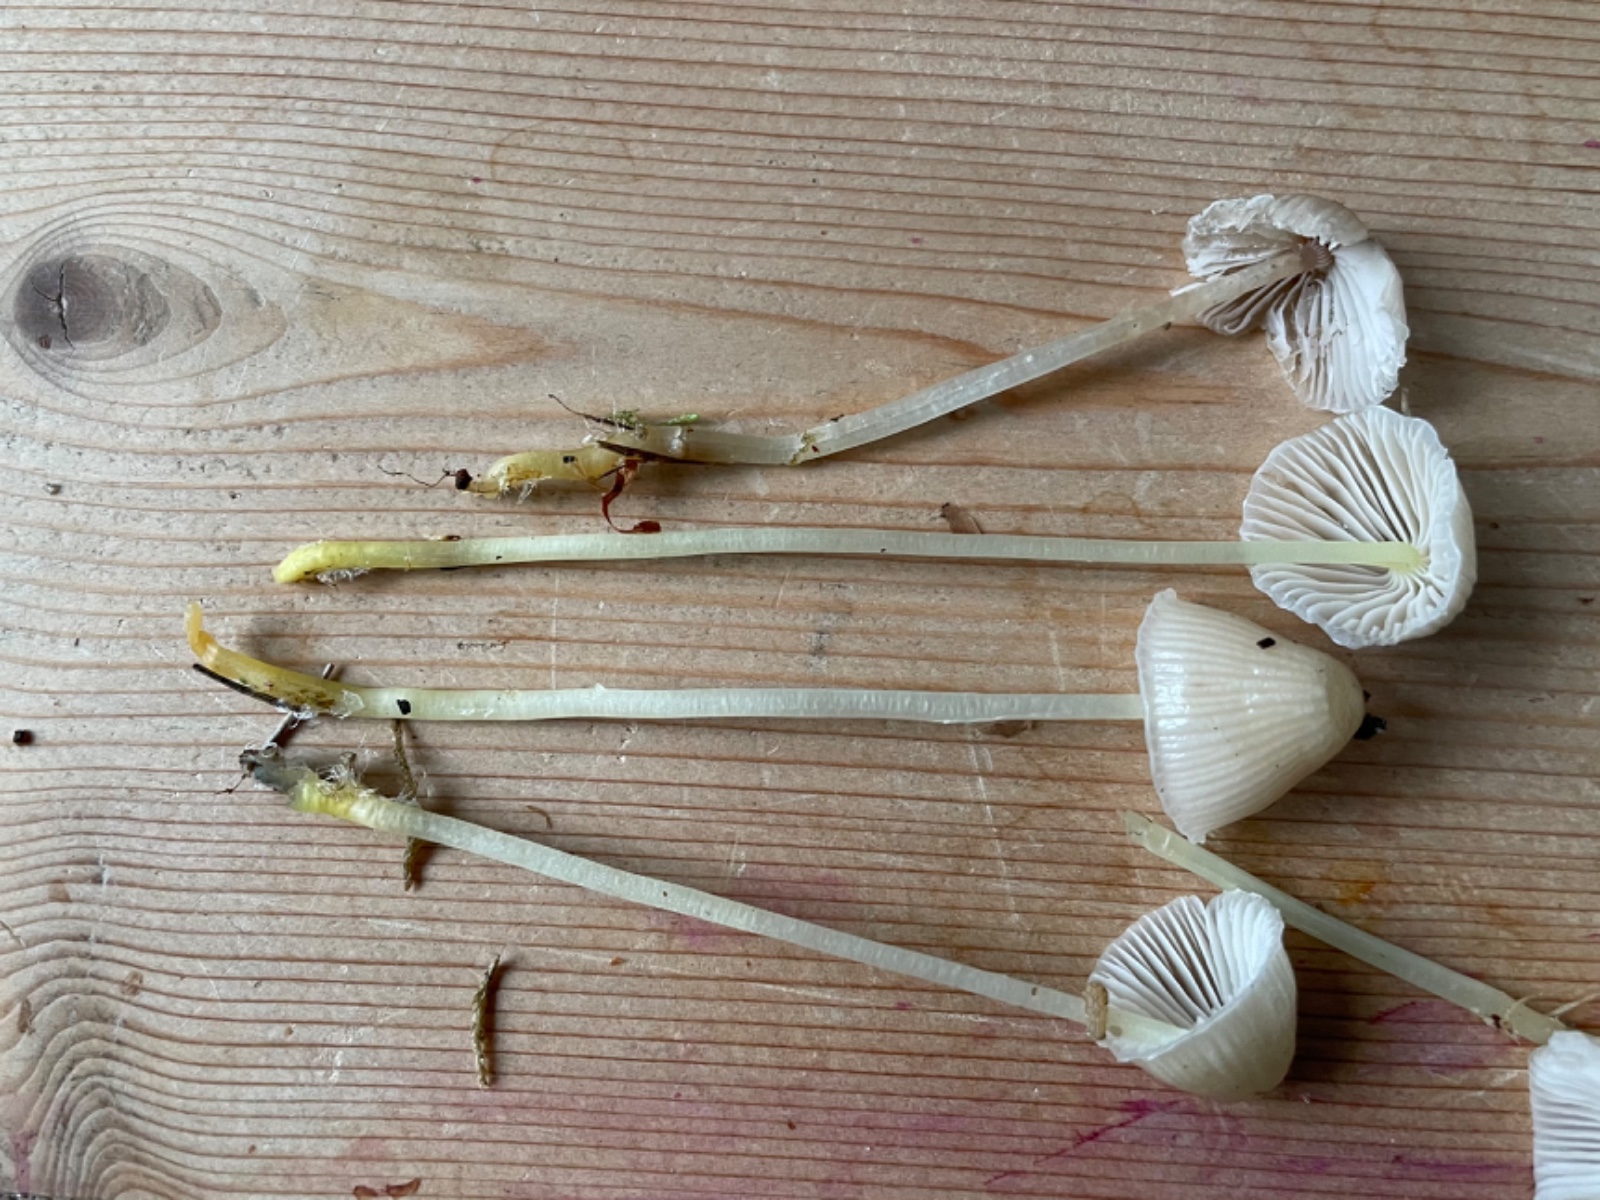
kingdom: Fungi
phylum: Basidiomycota
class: Agaricomycetes
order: Agaricales
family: Mycenaceae
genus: Mycena
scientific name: Mycena epipterygia
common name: gulstokket huesvamp
